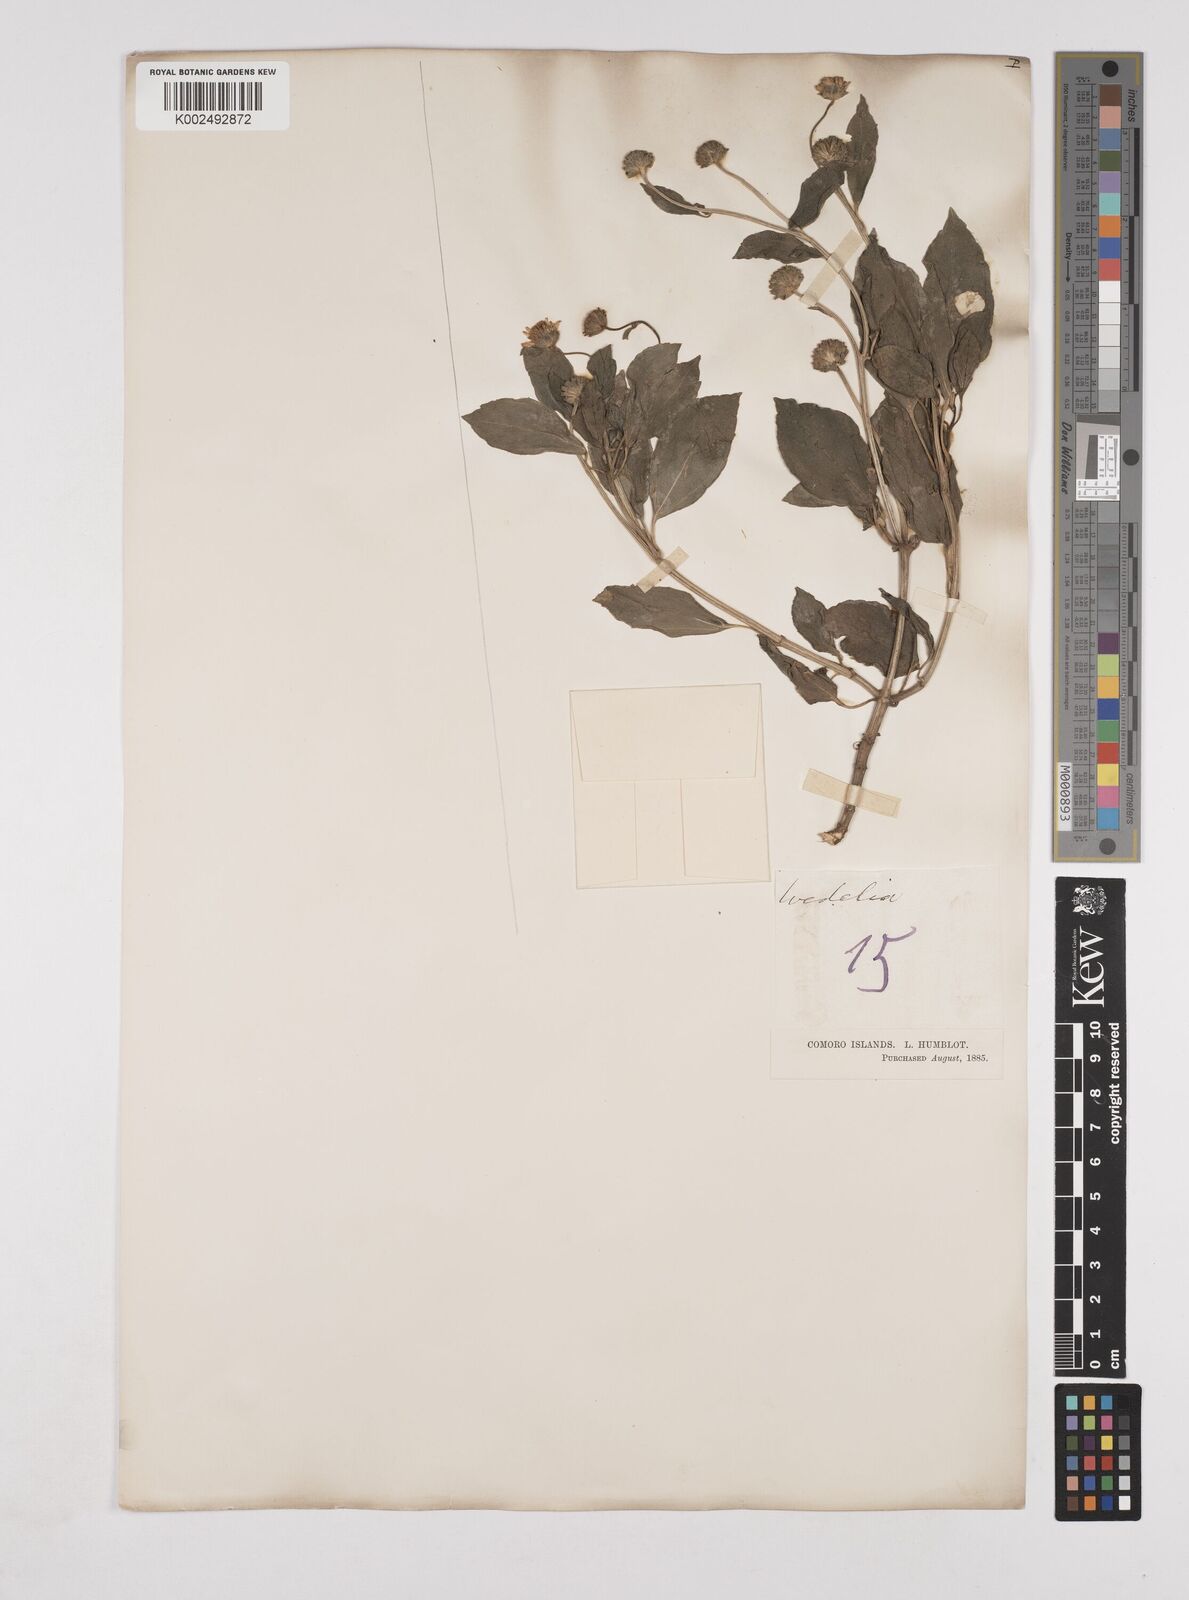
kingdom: Plantae
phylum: Tracheophyta
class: Magnoliopsida
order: Asterales
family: Asteraceae
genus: Wollastonia
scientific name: Wollastonia biflora
